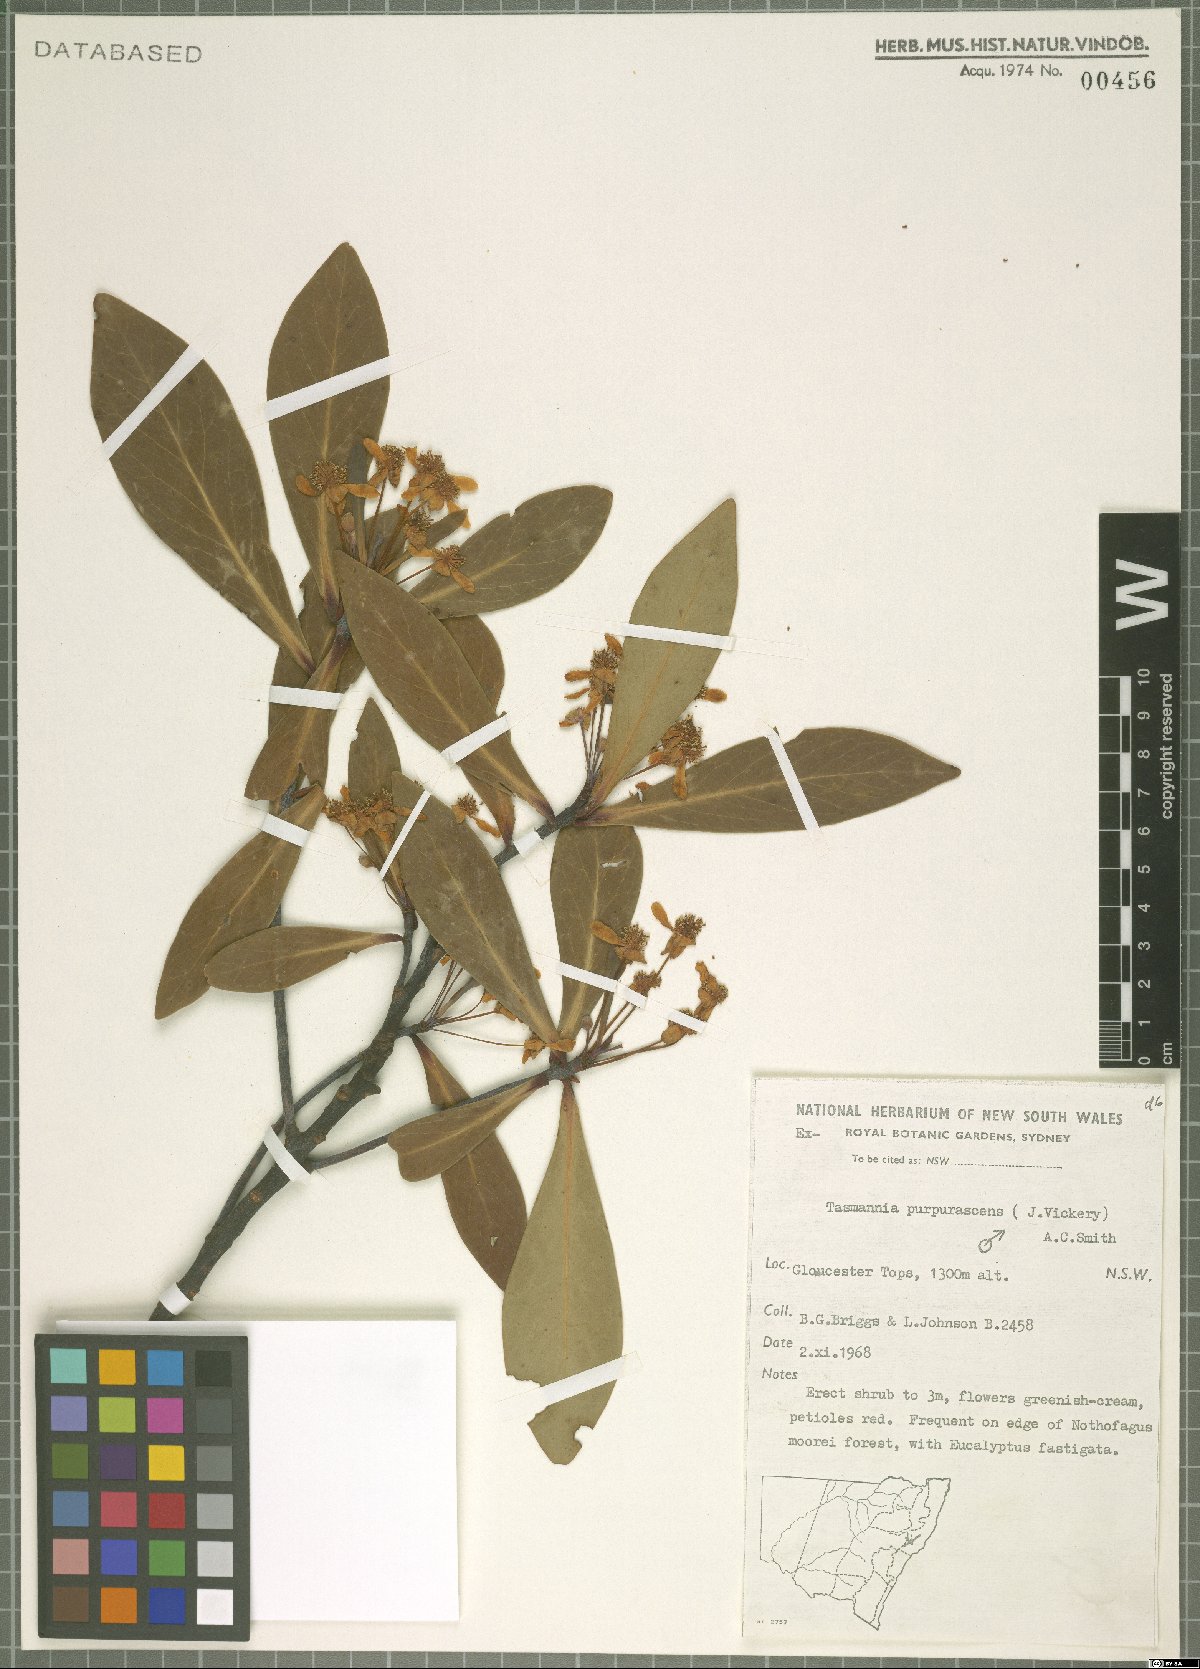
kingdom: Plantae
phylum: Tracheophyta
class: Magnoliopsida
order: Canellales
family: Winteraceae
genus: Drimys
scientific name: Drimys purpurascens
